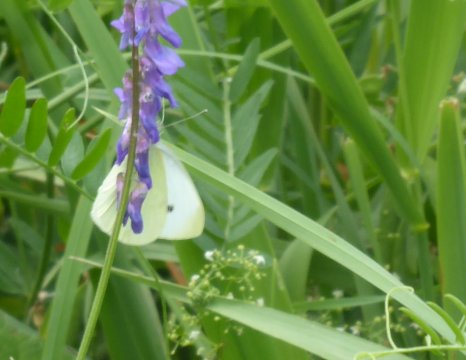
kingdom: Animalia
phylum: Arthropoda
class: Insecta
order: Lepidoptera
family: Pieridae
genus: Pieris
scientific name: Pieris rapae
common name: Cabbage White
